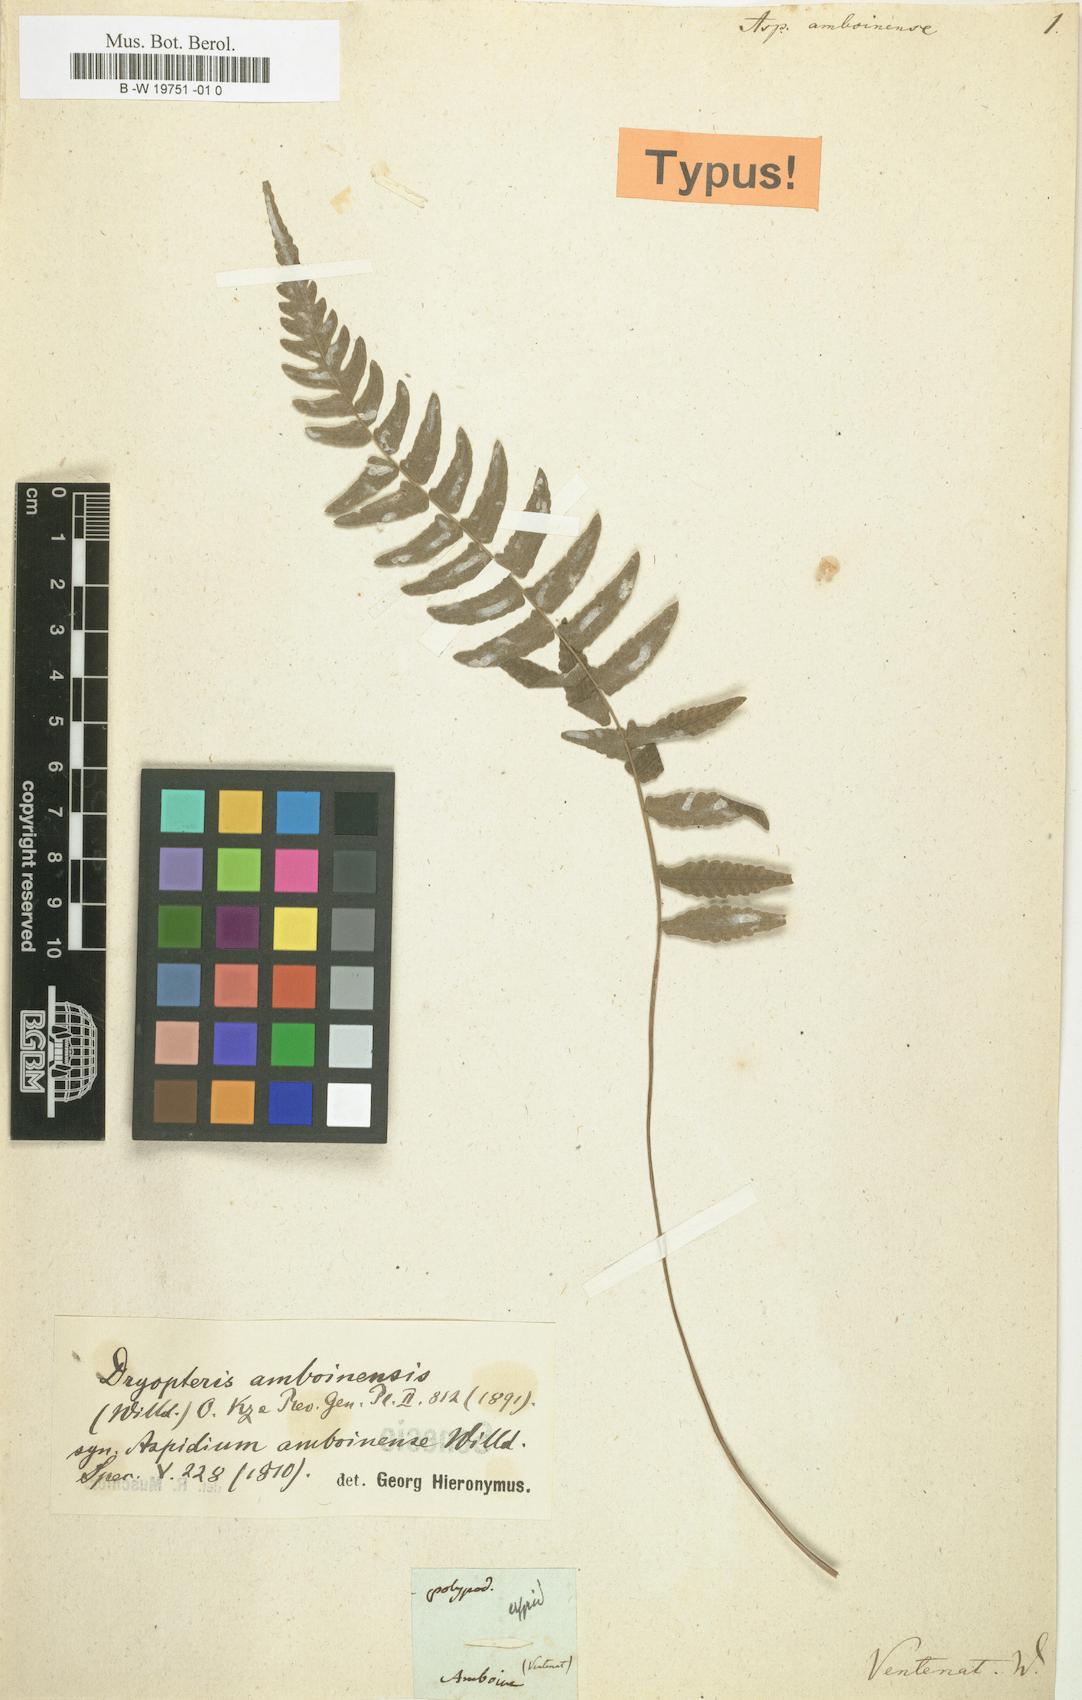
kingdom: Plantae
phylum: Tracheophyta
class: Polypodiopsida
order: Polypodiales
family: Thelypteridaceae
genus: Pronephrium
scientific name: Pronephrium amboinense
